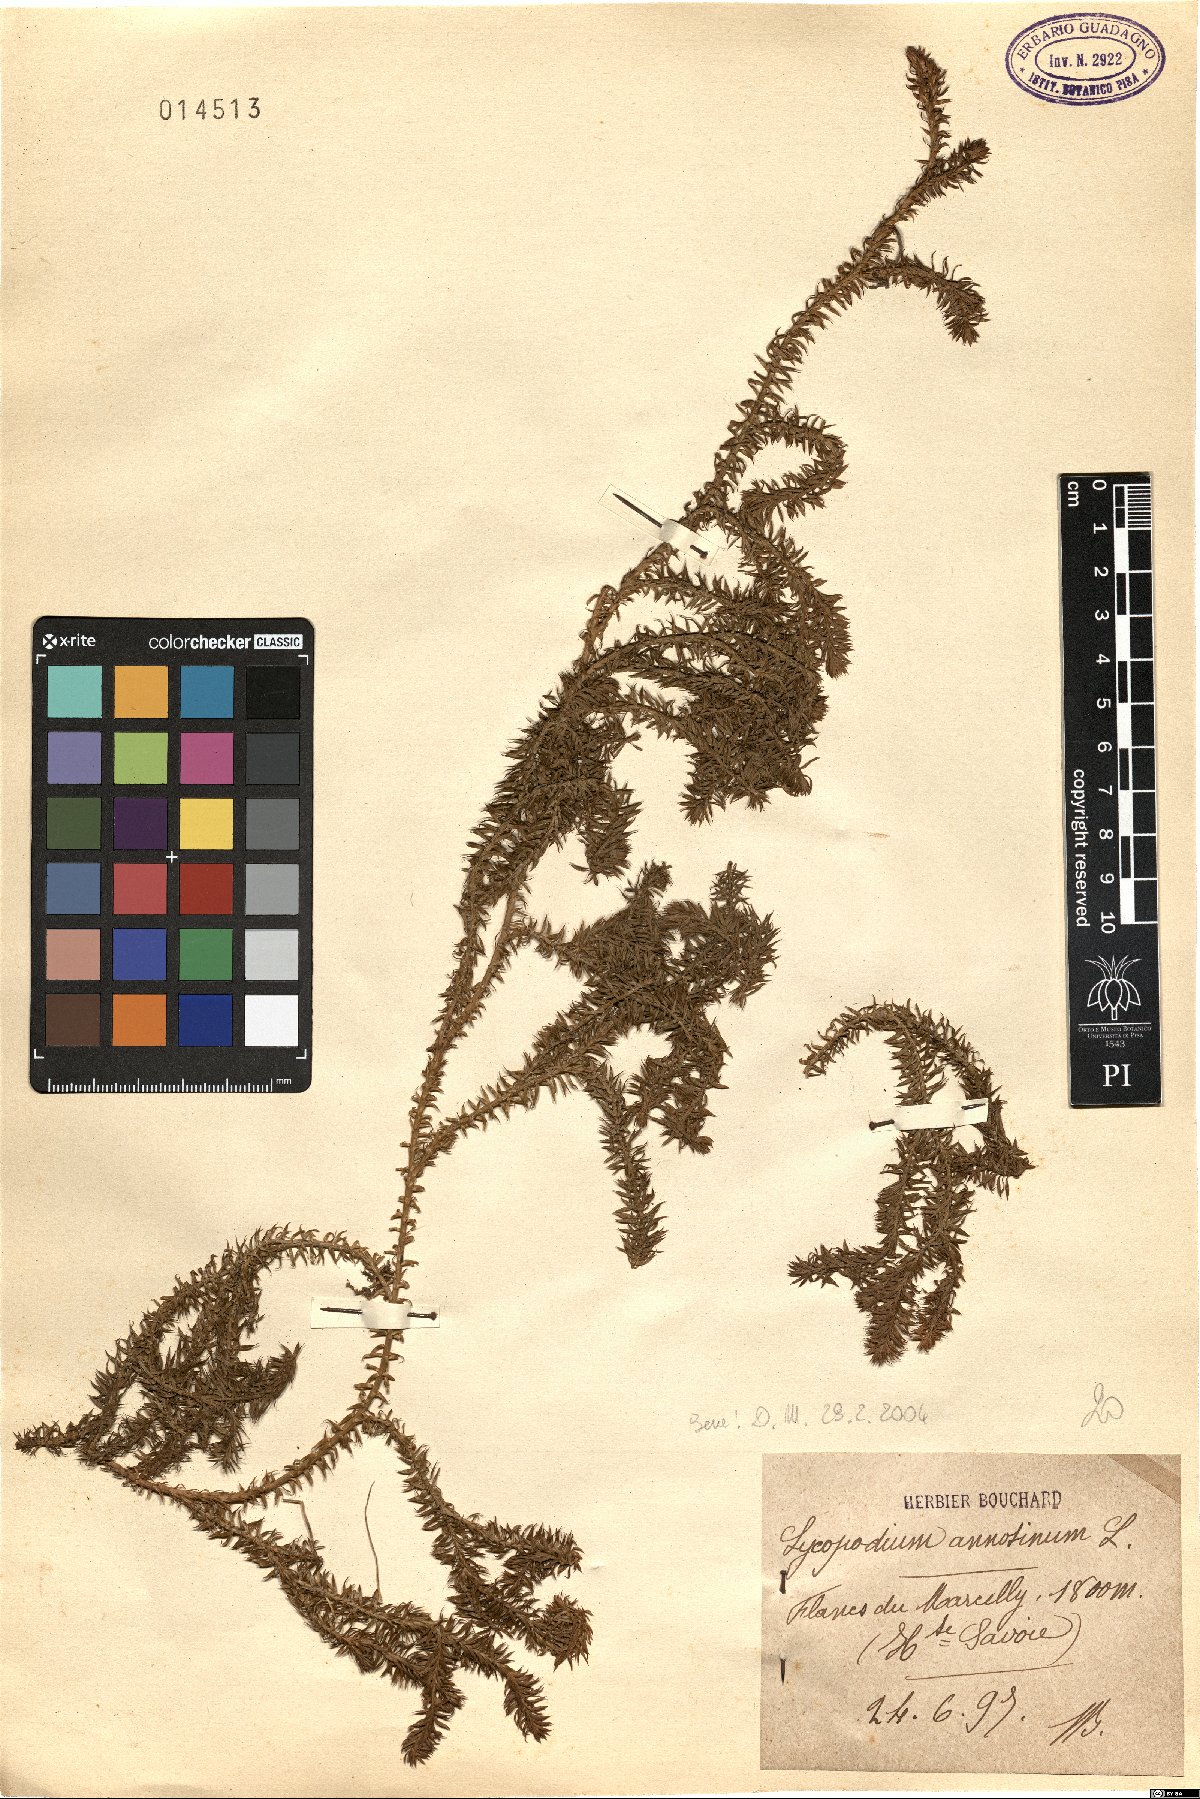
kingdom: Plantae
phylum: Tracheophyta
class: Lycopodiopsida
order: Lycopodiales
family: Lycopodiaceae
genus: Spinulum
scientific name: Spinulum annotinum
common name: Interrupted club-moss
